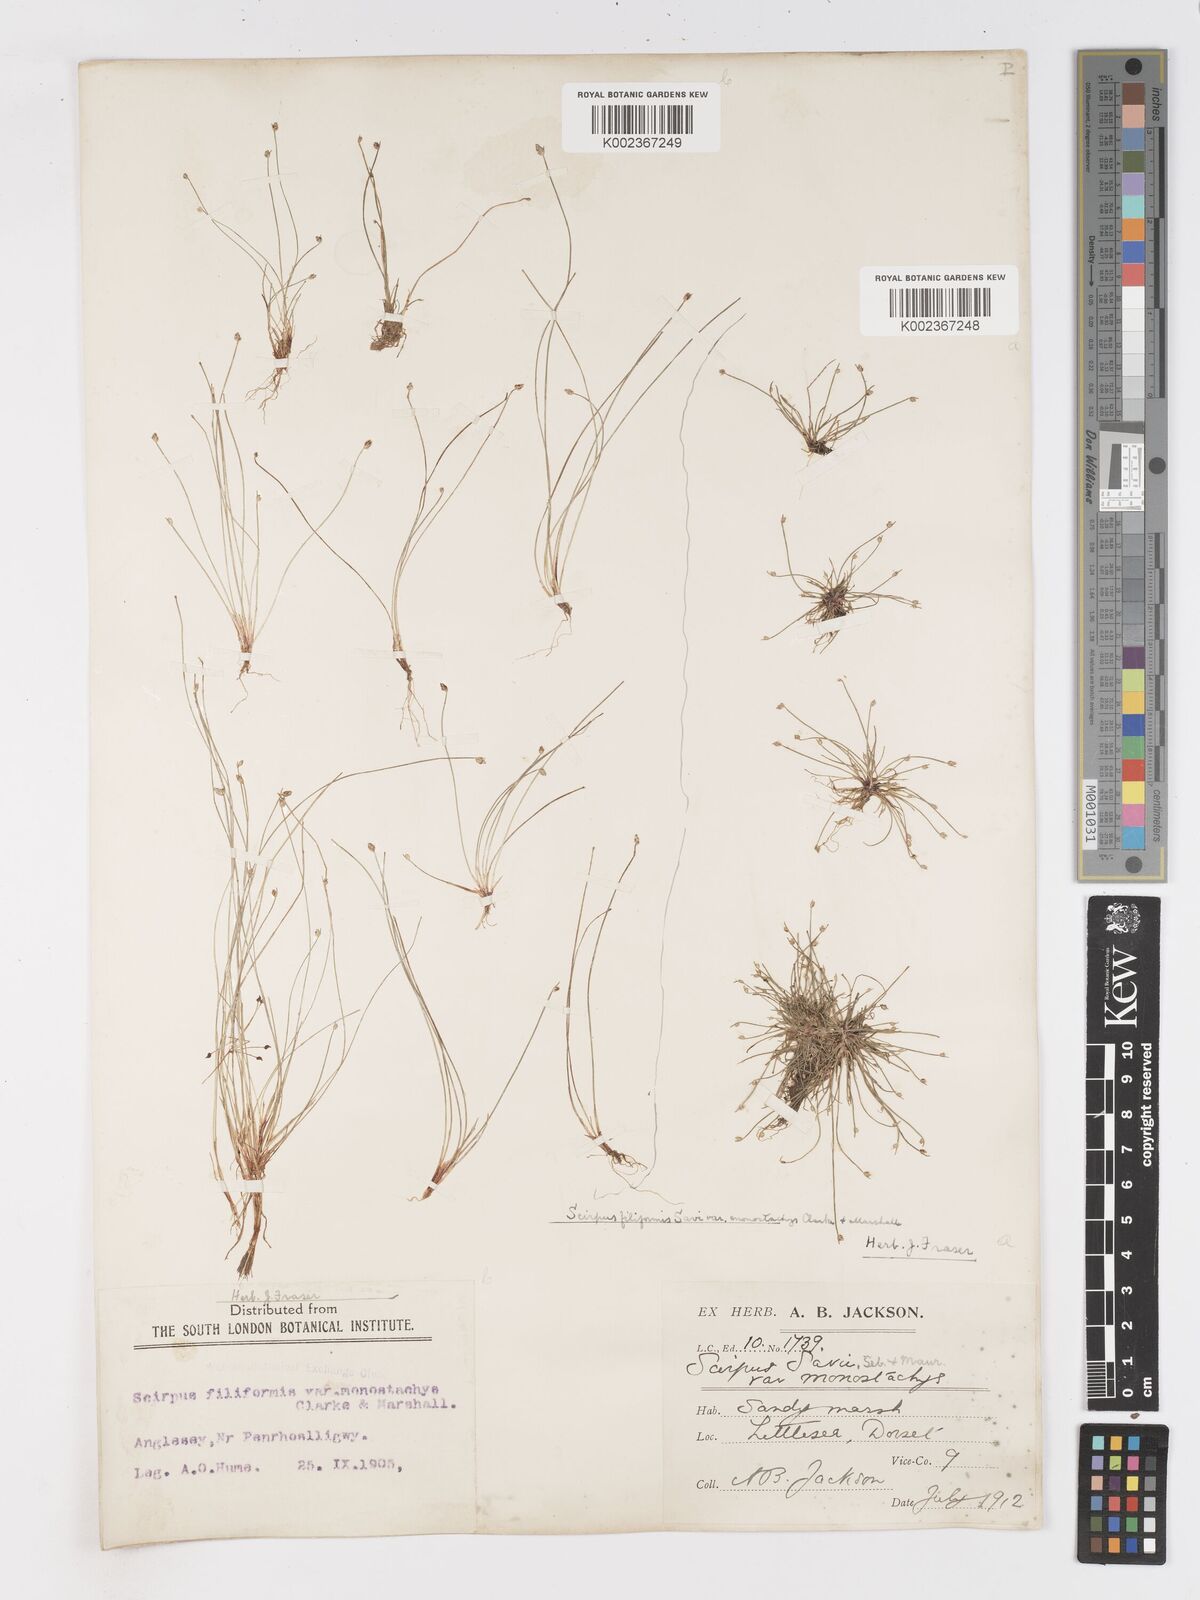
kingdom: Plantae
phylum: Tracheophyta
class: Liliopsida
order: Poales
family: Cyperaceae
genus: Isolepis
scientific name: Isolepis cernua
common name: Slender club-rush
